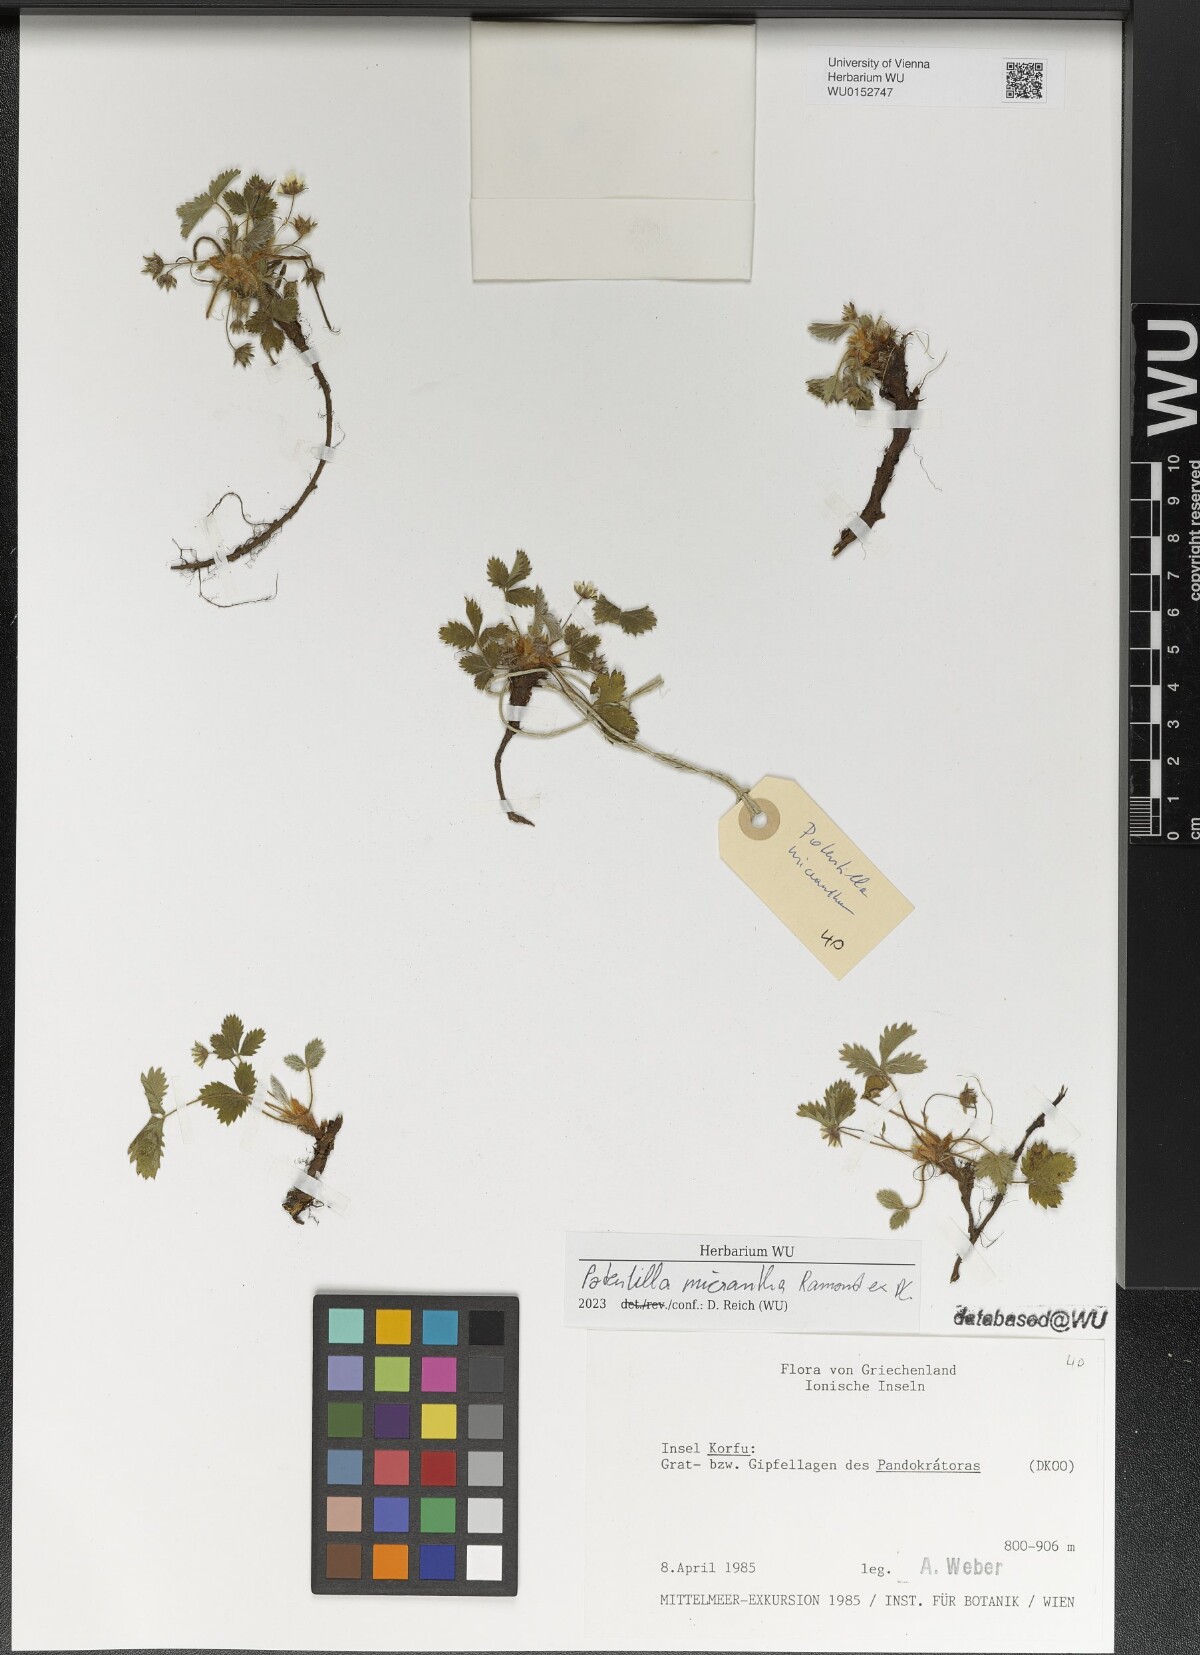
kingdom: Plantae
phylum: Tracheophyta
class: Magnoliopsida
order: Rosales
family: Rosaceae
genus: Potentilla
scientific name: Potentilla micrantha
